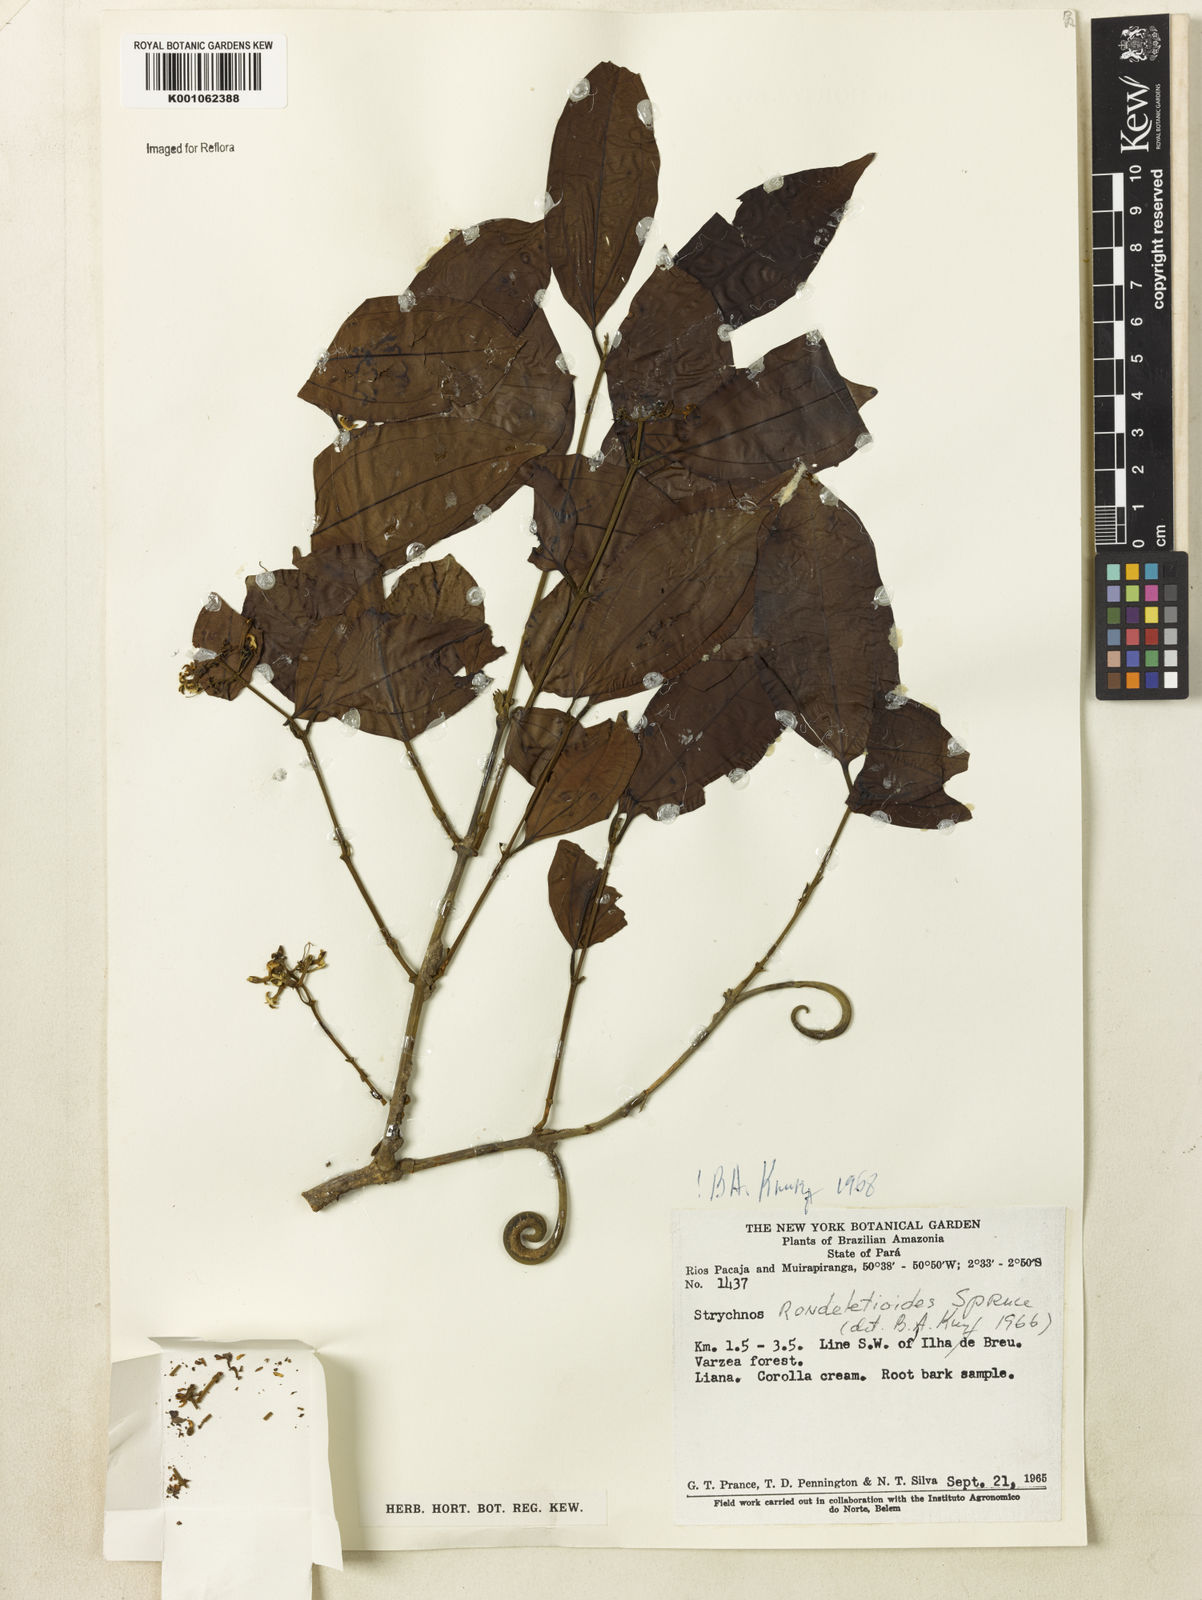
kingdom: Plantae
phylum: Tracheophyta
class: Magnoliopsida
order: Gentianales
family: Loganiaceae
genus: Strychnos
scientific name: Strychnos rondeletioides
